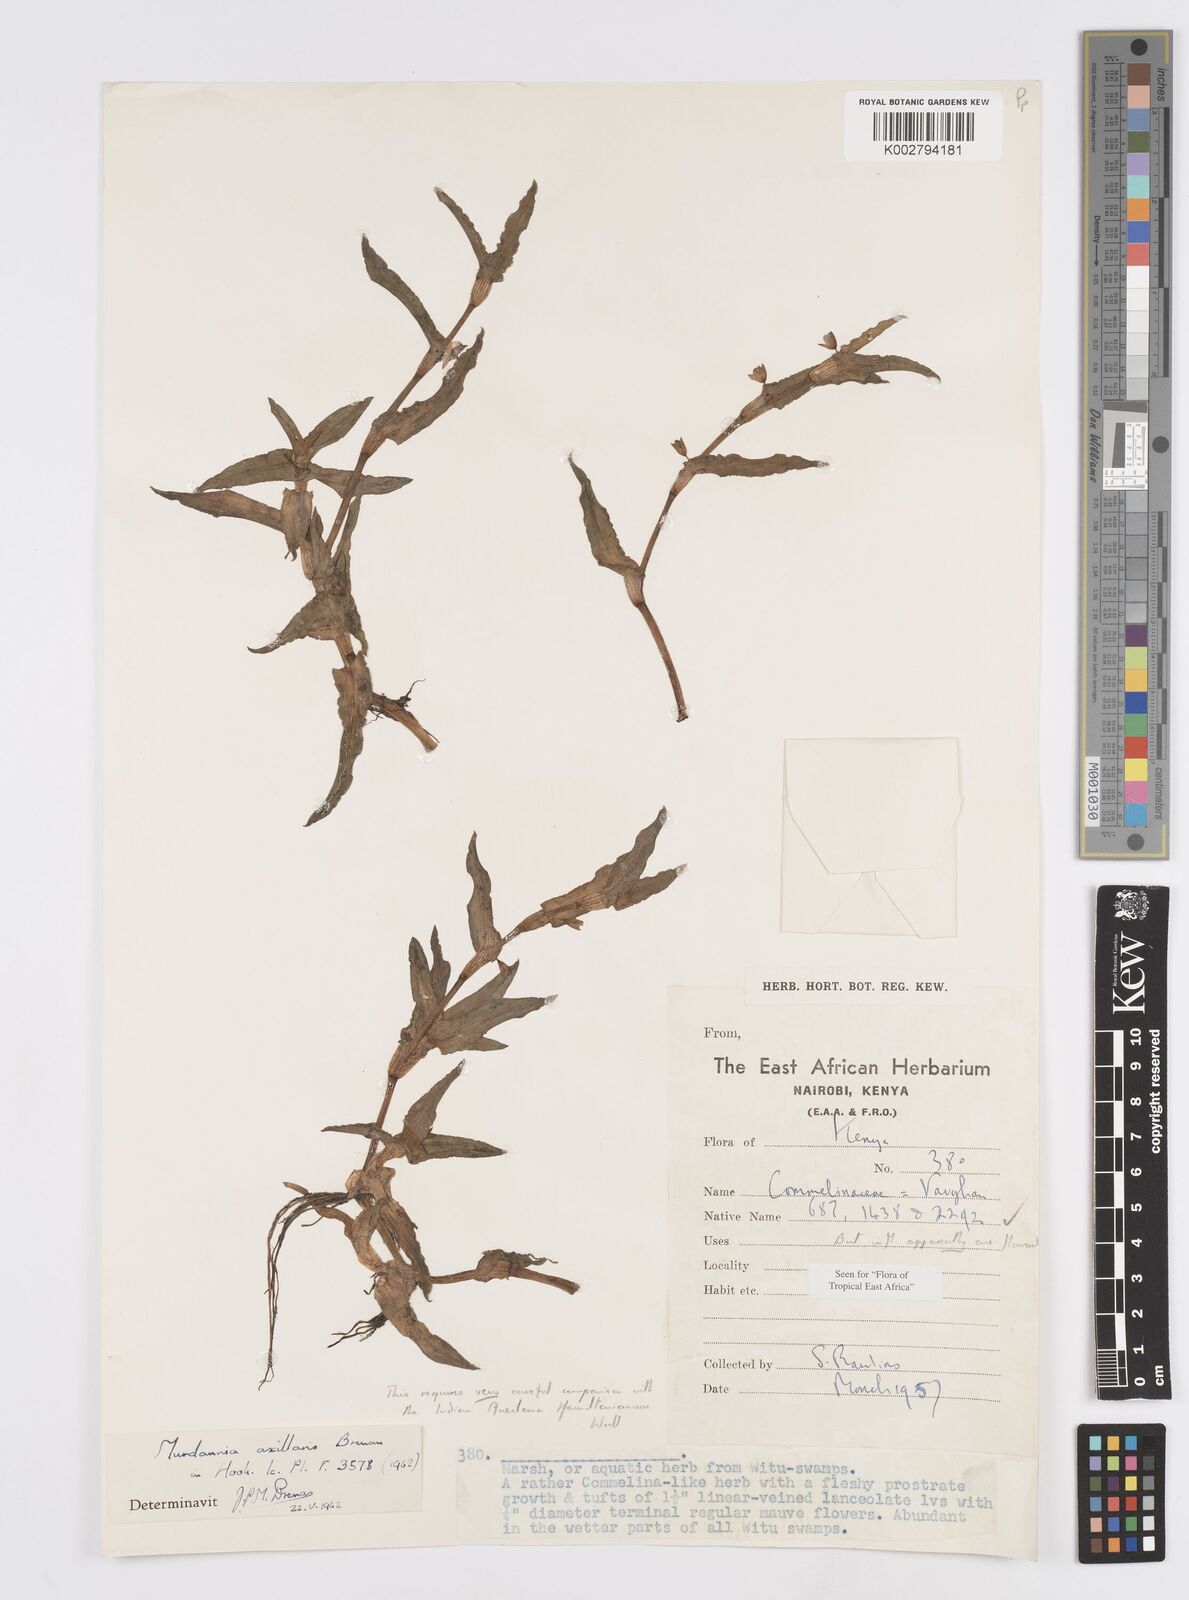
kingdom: Plantae
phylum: Tracheophyta
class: Liliopsida
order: Commelinales
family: Commelinaceae
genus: Murdannia
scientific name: Murdannia axillaris
